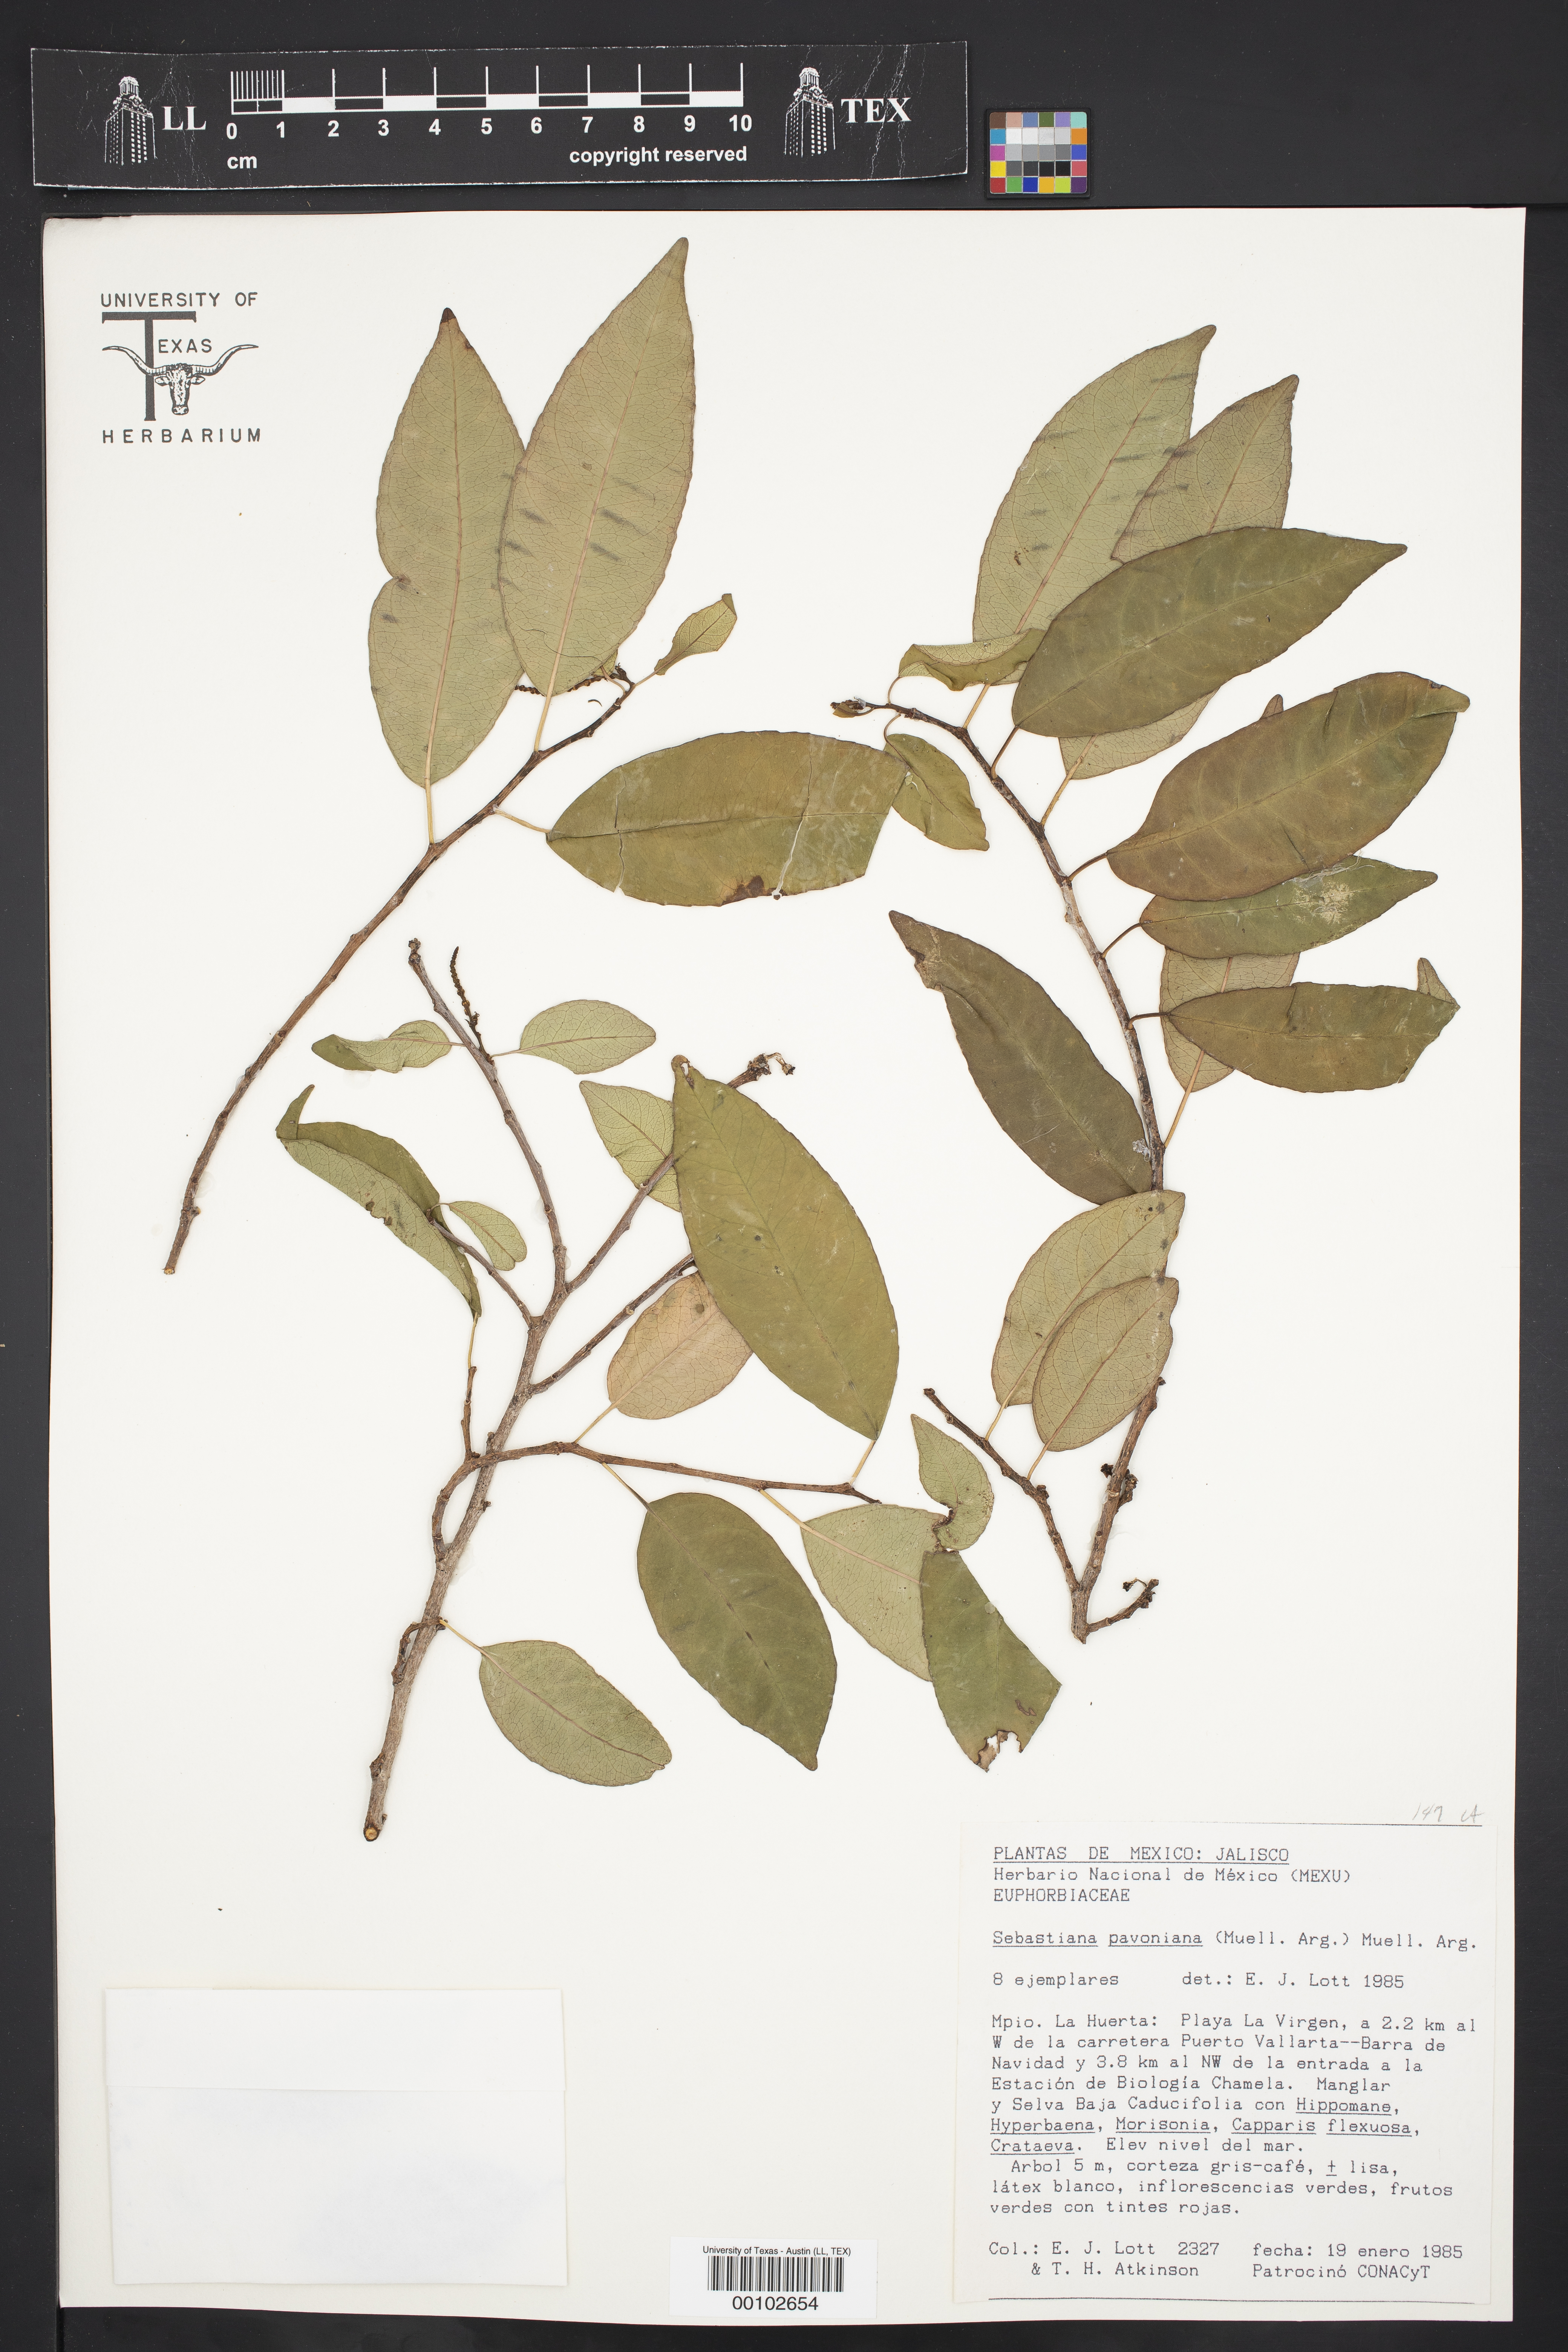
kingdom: Plantae
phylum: Tracheophyta
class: Magnoliopsida
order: Malpighiales
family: Euphorbiaceae
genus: Sebastiania
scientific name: Sebastiania pavoniana
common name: Mexican jumping-beans
